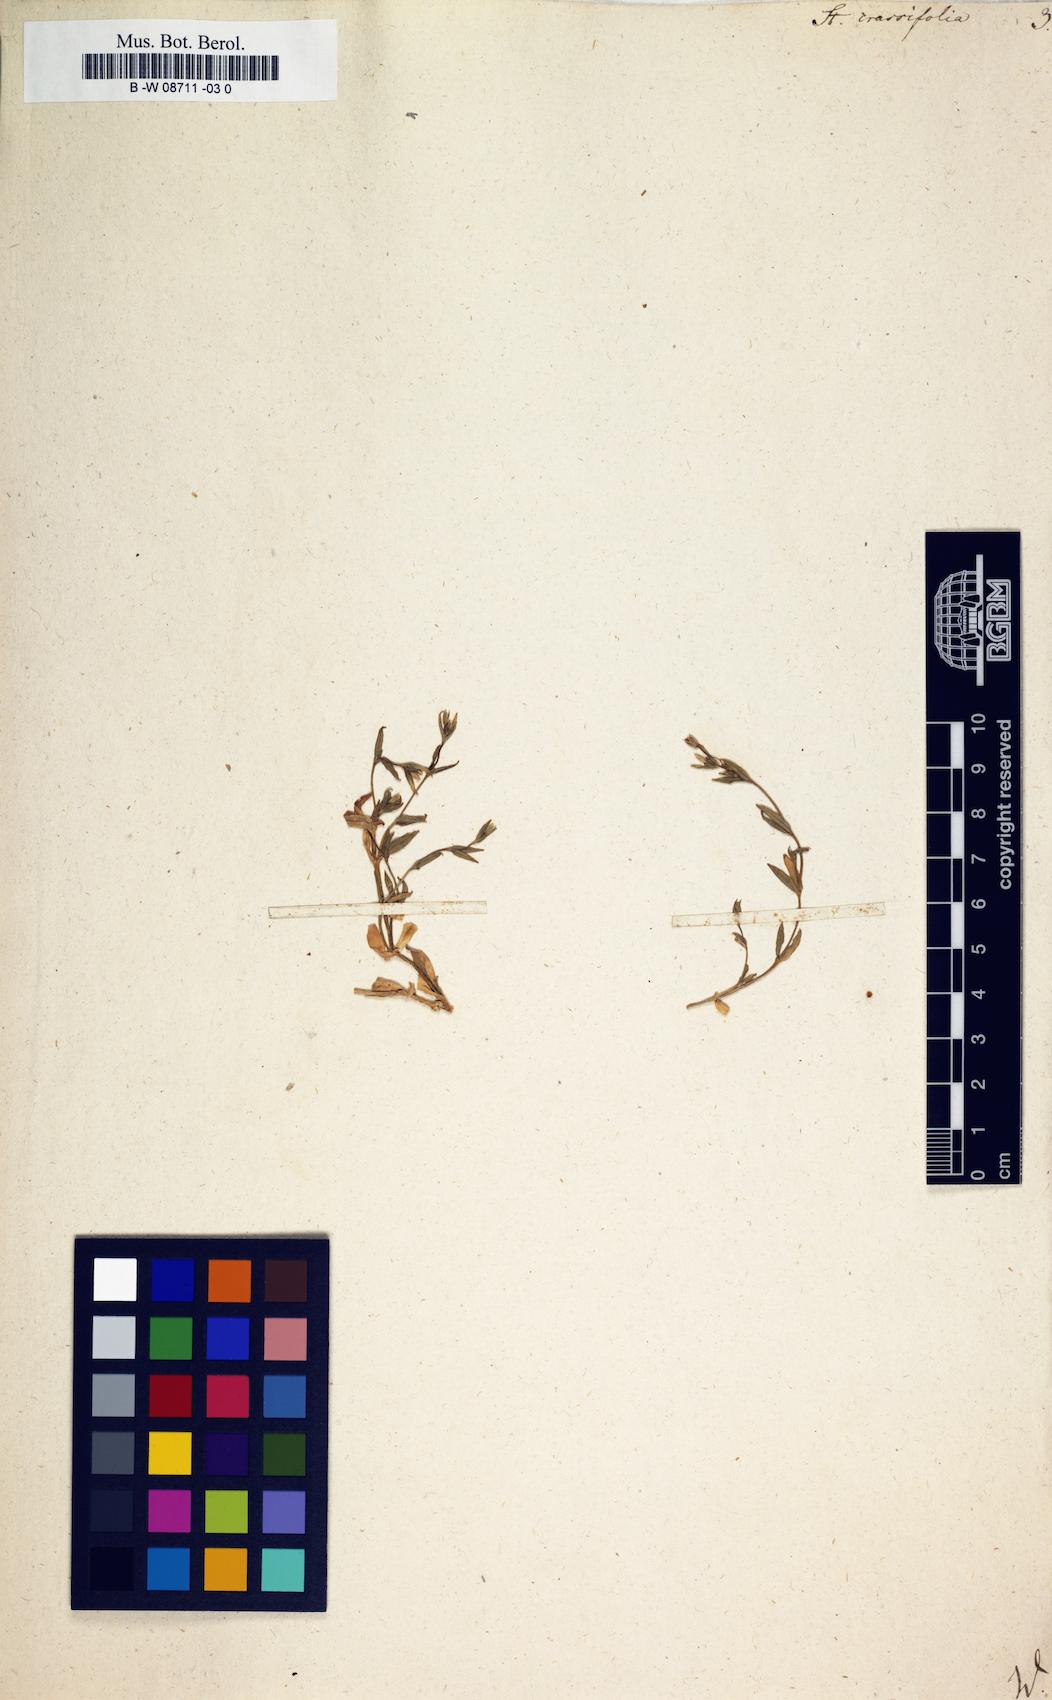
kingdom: Plantae
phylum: Tracheophyta
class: Magnoliopsida
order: Caryophyllales
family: Caryophyllaceae
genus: Stellaria
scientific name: Stellaria crassifolia
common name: Fleshy starwort
